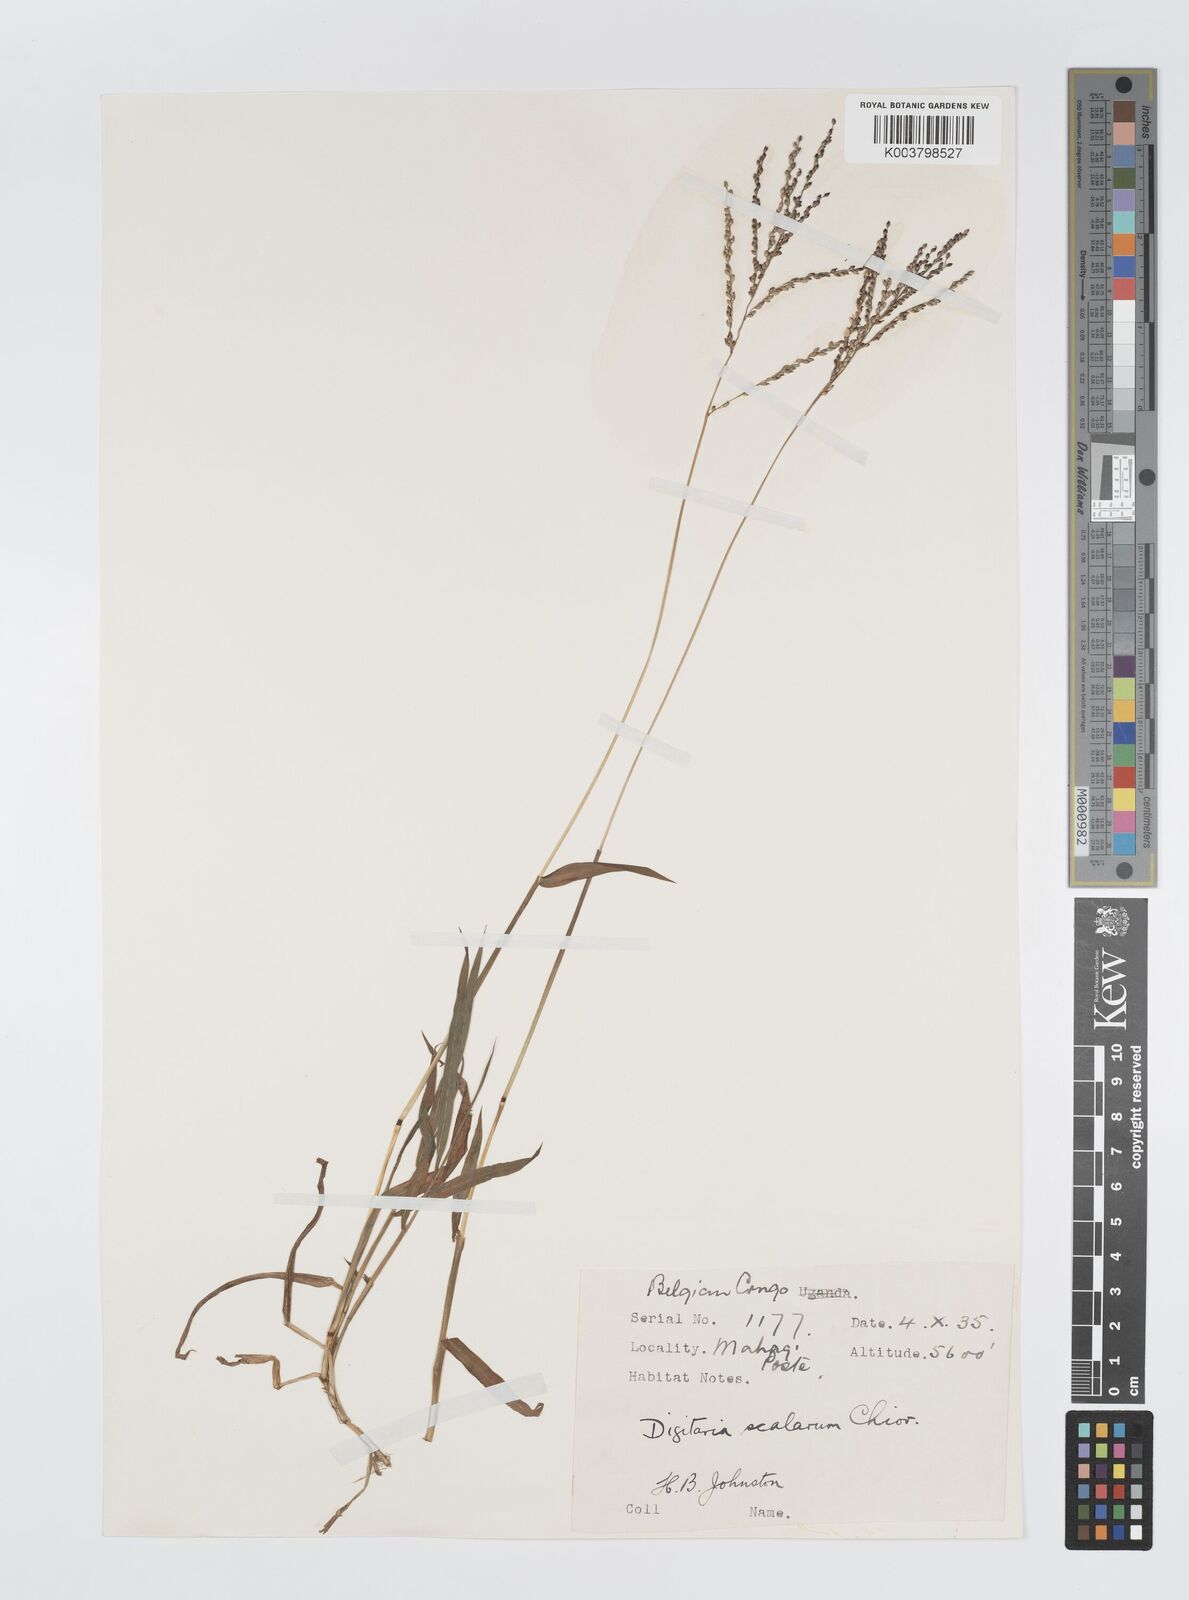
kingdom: Plantae
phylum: Tracheophyta
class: Liliopsida
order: Poales
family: Poaceae
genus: Digitaria
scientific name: Digitaria abyssinica
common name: African couchgrass
